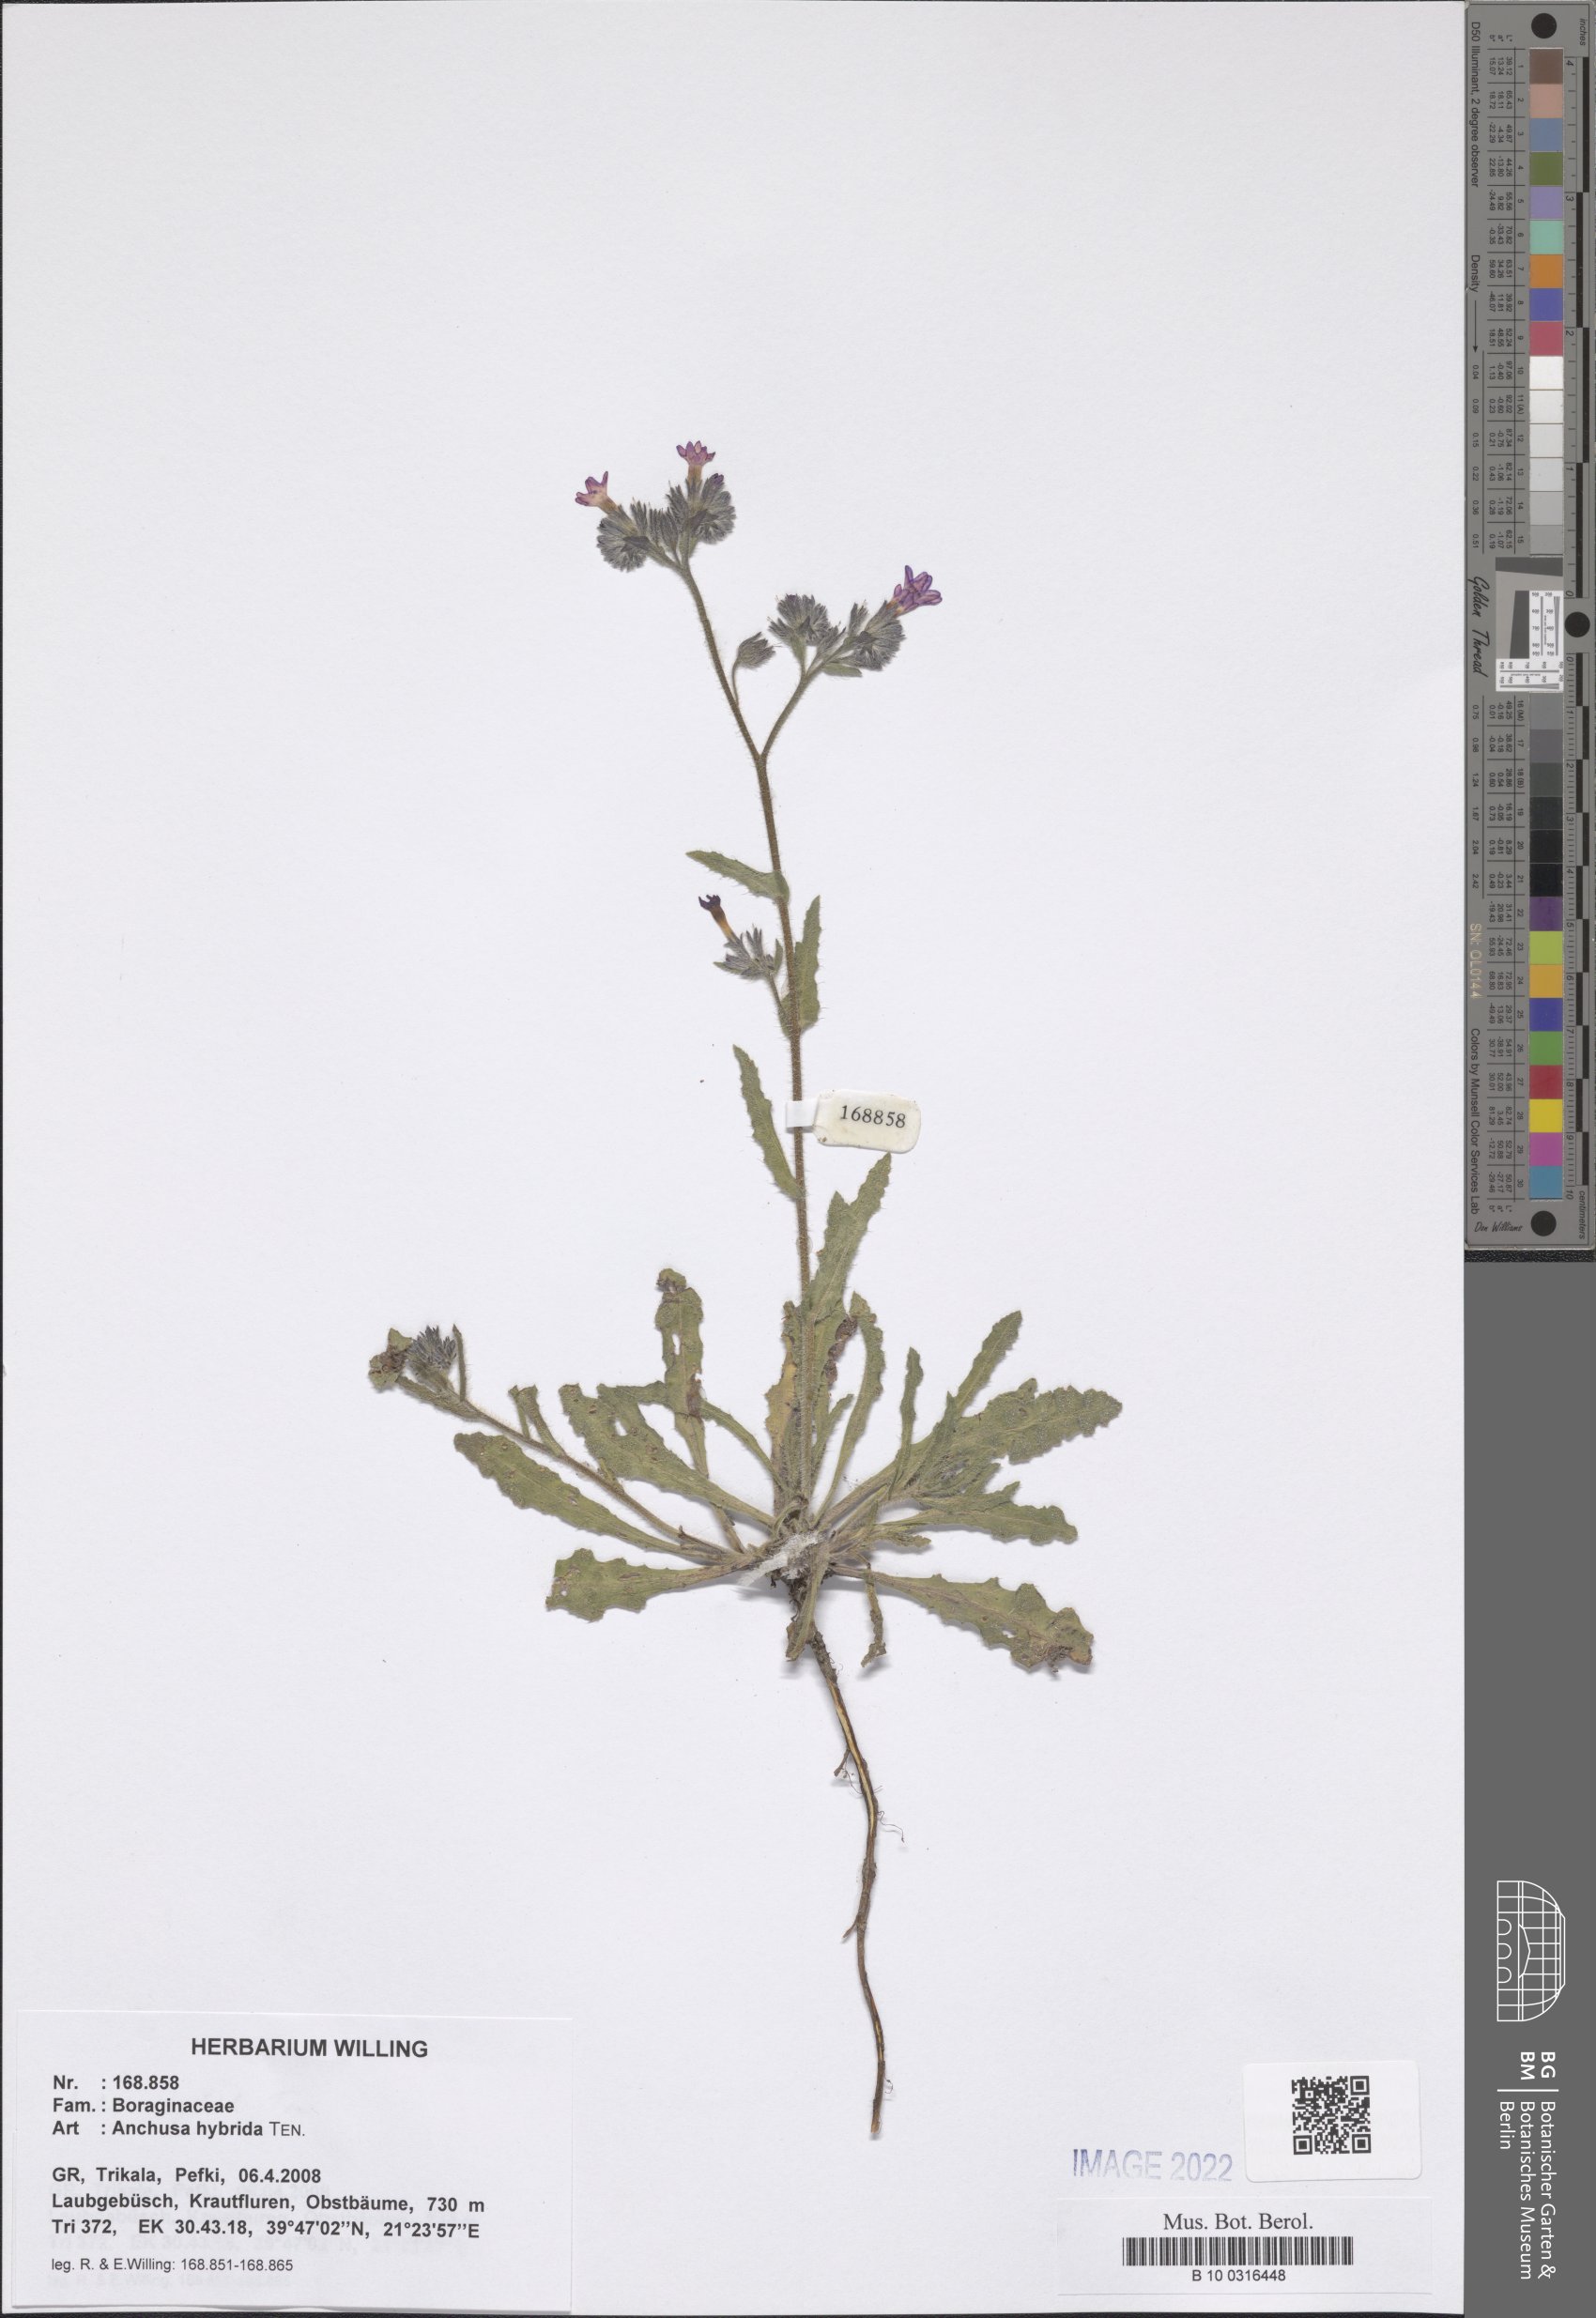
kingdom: Plantae
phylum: Tracheophyta
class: Magnoliopsida
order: Boraginales
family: Boraginaceae
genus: Anchusa
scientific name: Anchusa hybrida
